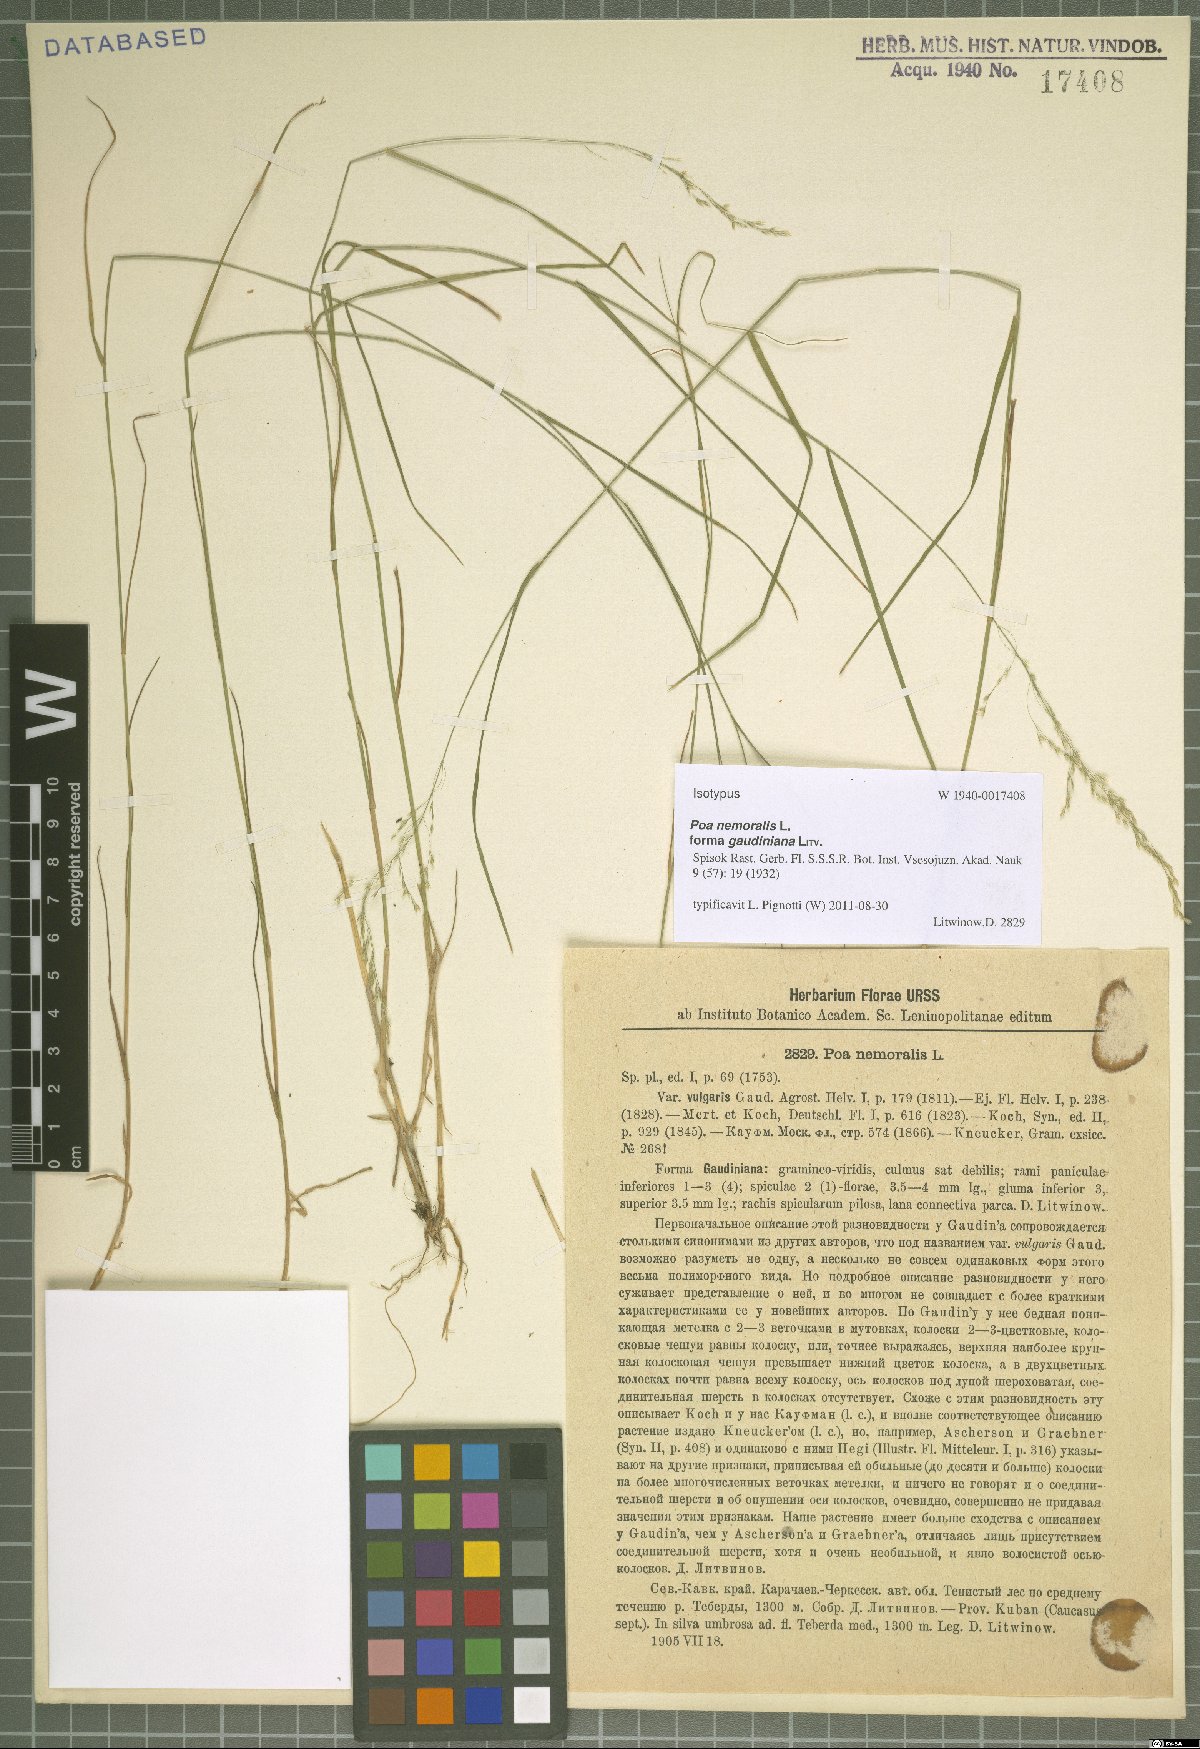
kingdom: Plantae
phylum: Tracheophyta
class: Liliopsida
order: Poales
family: Poaceae
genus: Poa
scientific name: Poa nemoralis
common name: Wood bluegrass
